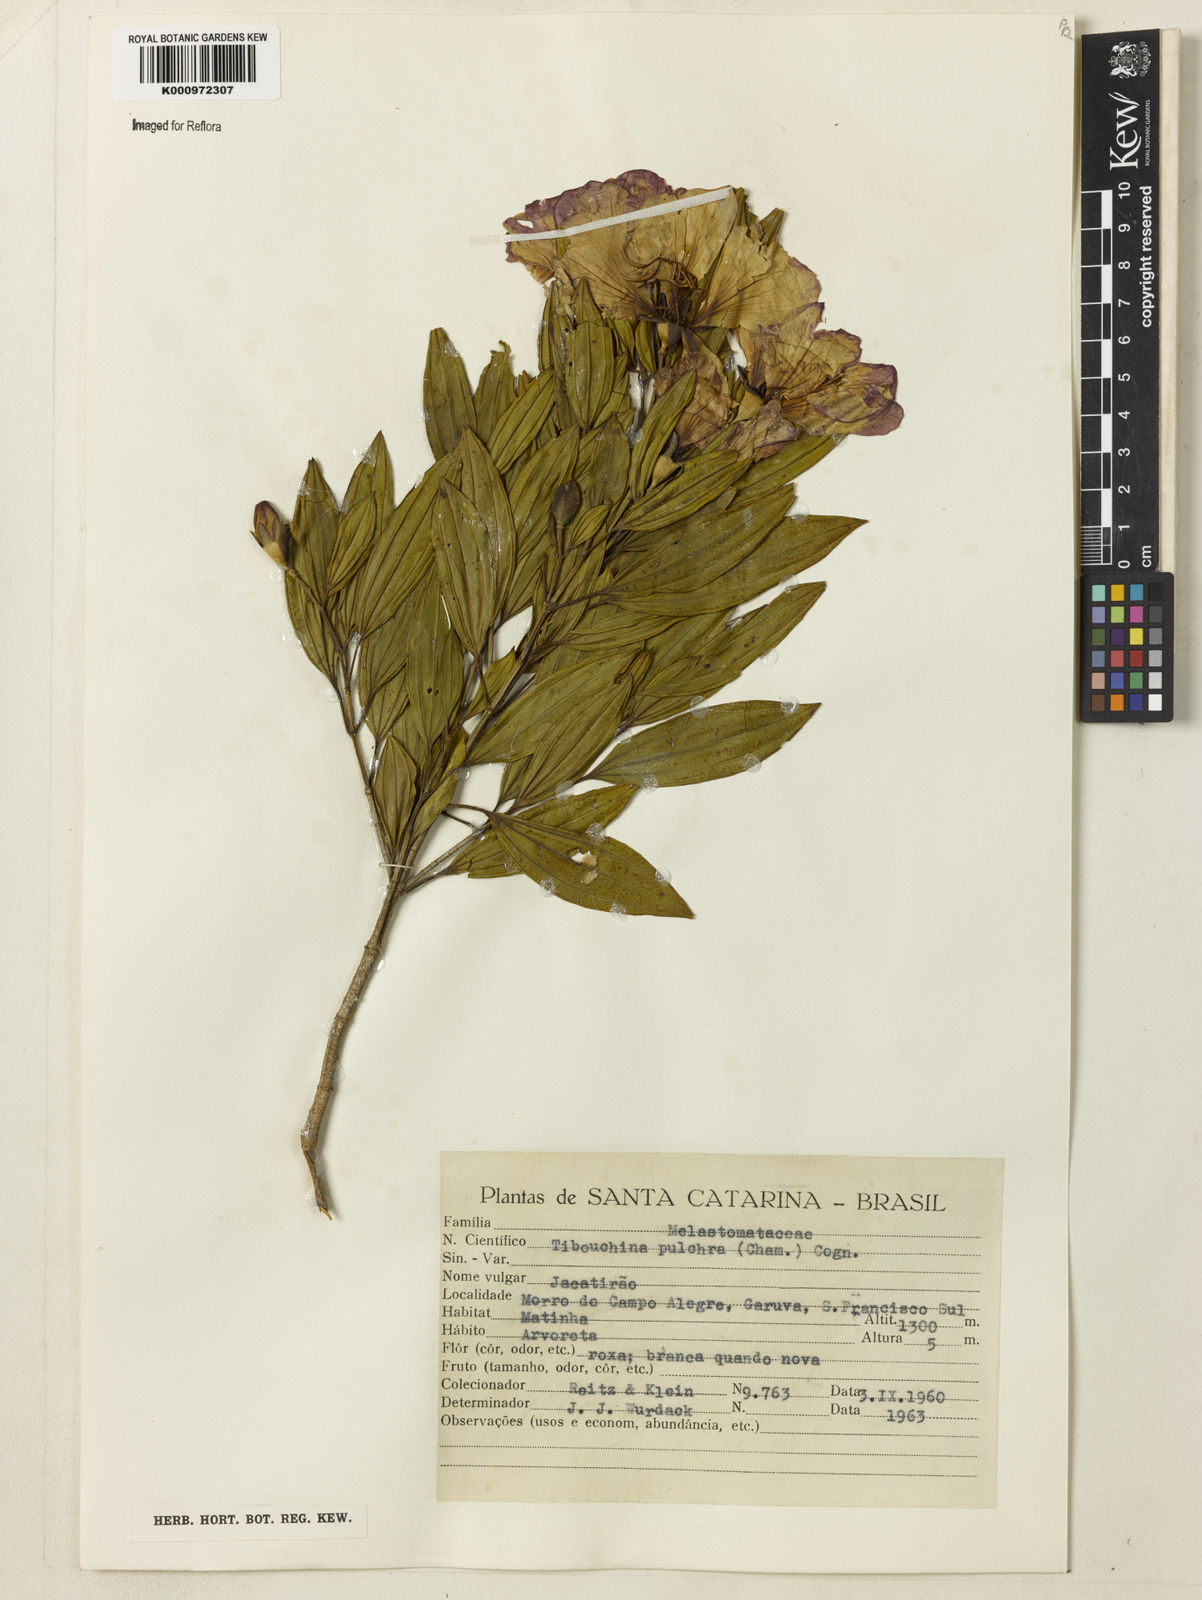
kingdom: Plantae
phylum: Tracheophyta
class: Magnoliopsida
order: Myrtales
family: Melastomataceae
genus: Pleroma
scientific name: Pleroma raddianum
